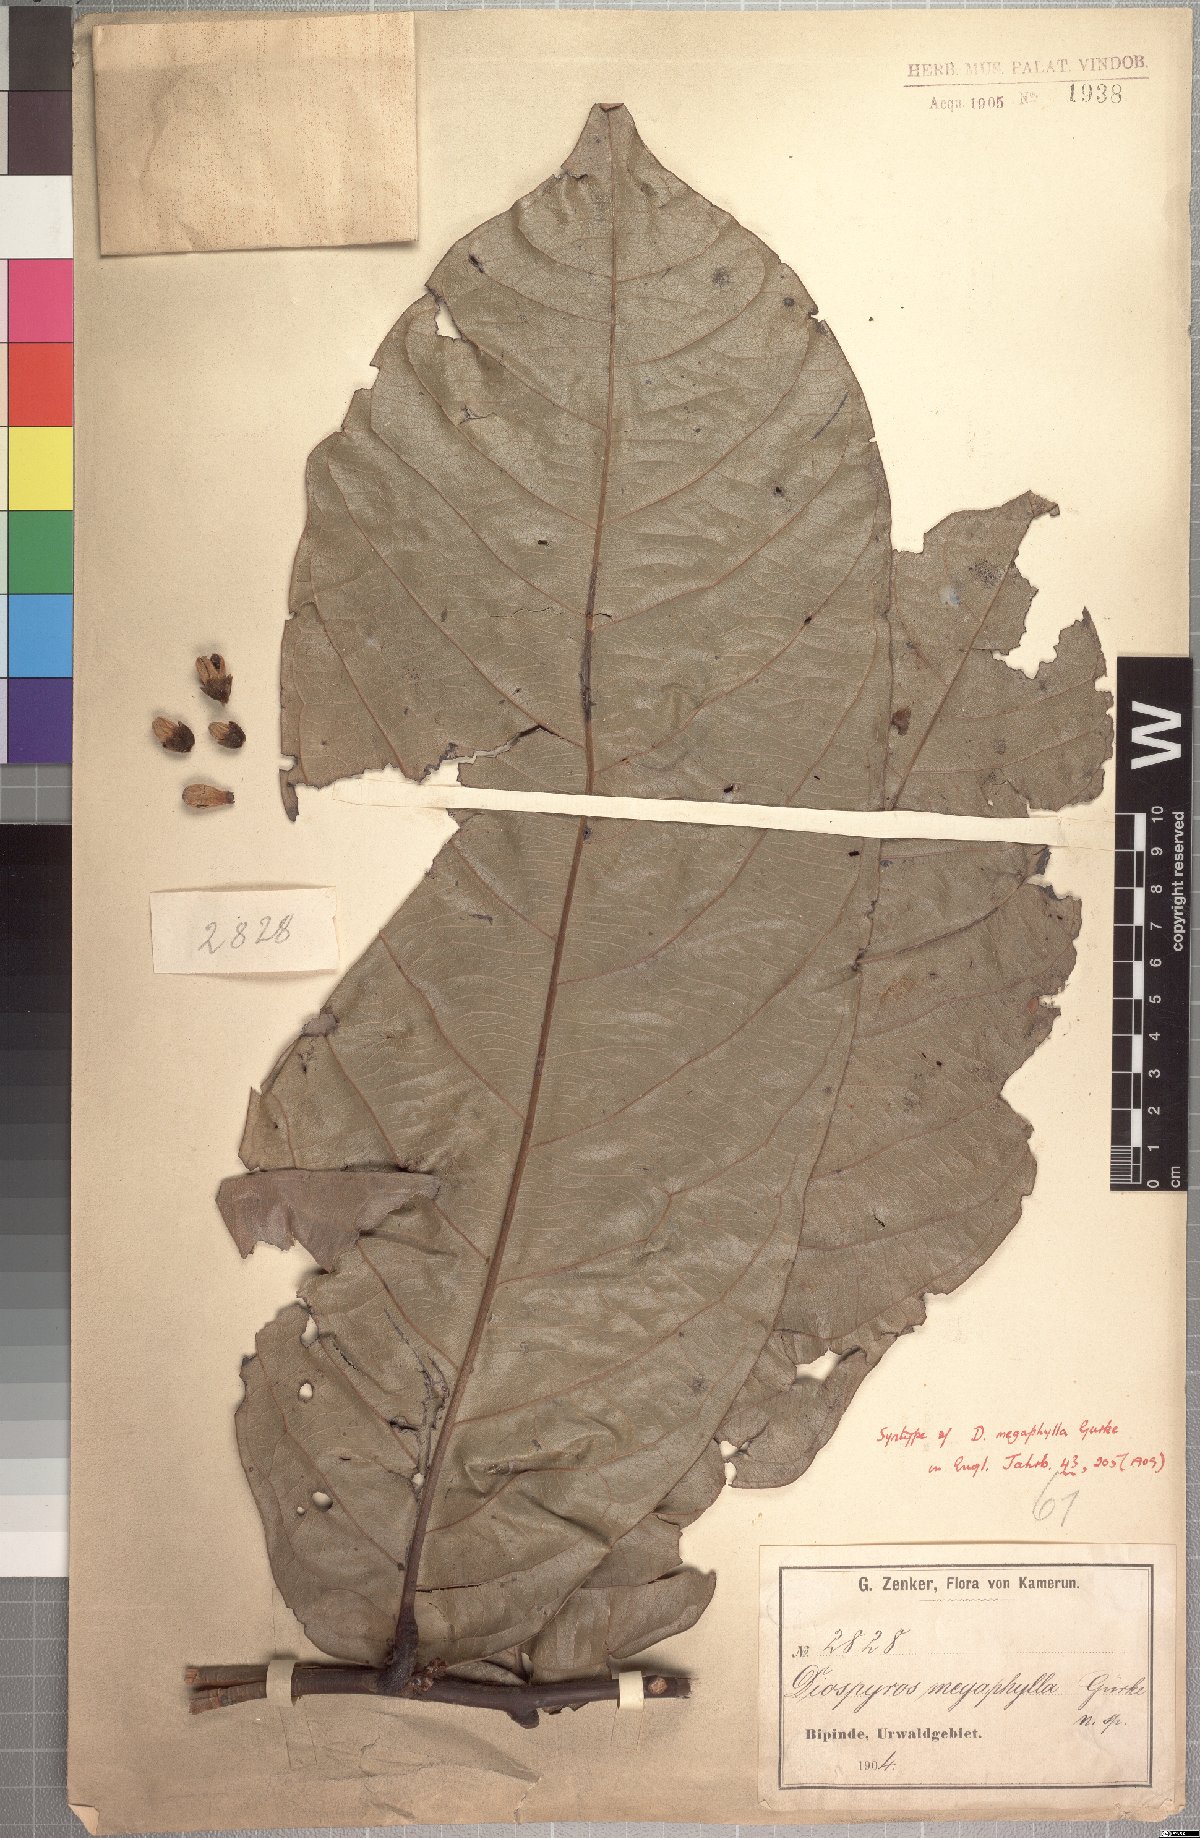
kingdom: Plantae
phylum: Tracheophyta
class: Magnoliopsida
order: Ericales
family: Ebenaceae
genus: Diospyros
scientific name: Diospyros gabunensis
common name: Flint bark tree
